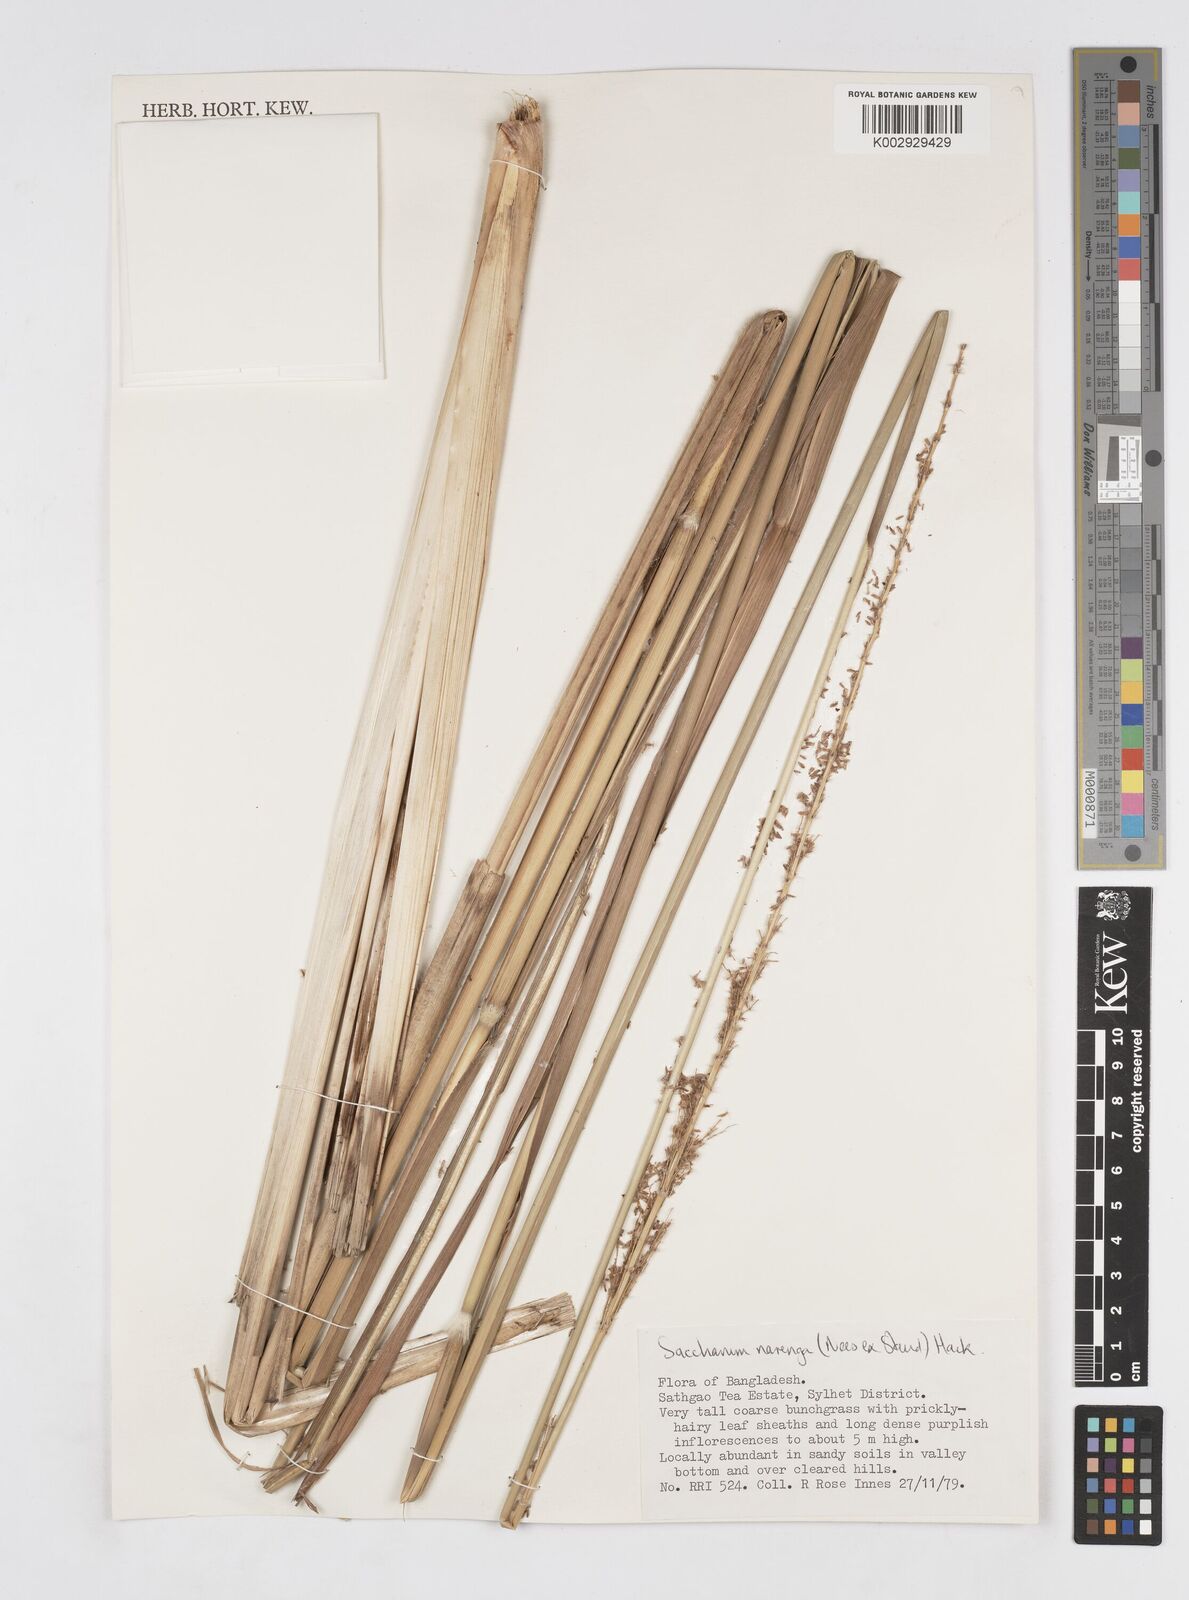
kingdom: Plantae
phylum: Tracheophyta
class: Liliopsida
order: Poales
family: Poaceae
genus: Narenga
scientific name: Narenga porphyrocoma
